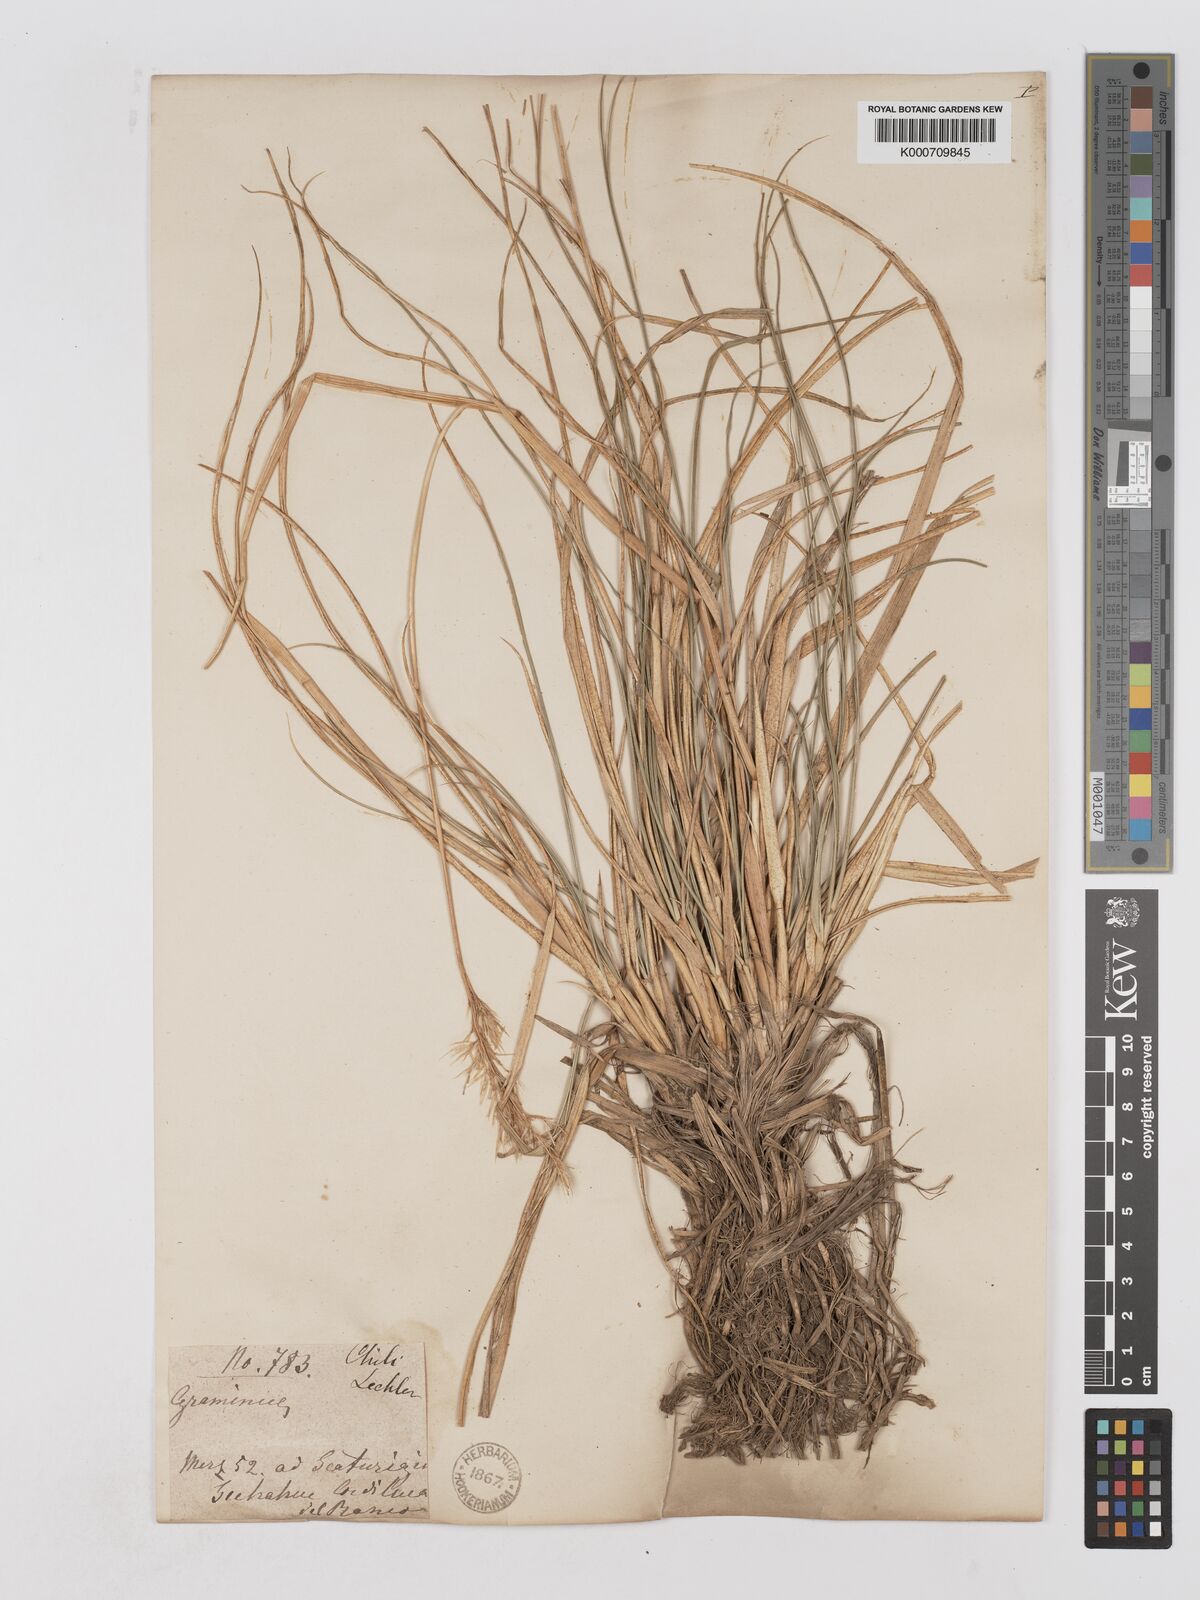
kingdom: Plantae
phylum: Tracheophyta
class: Liliopsida
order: Poales
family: Poaceae
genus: Cortaderia
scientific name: Cortaderia
